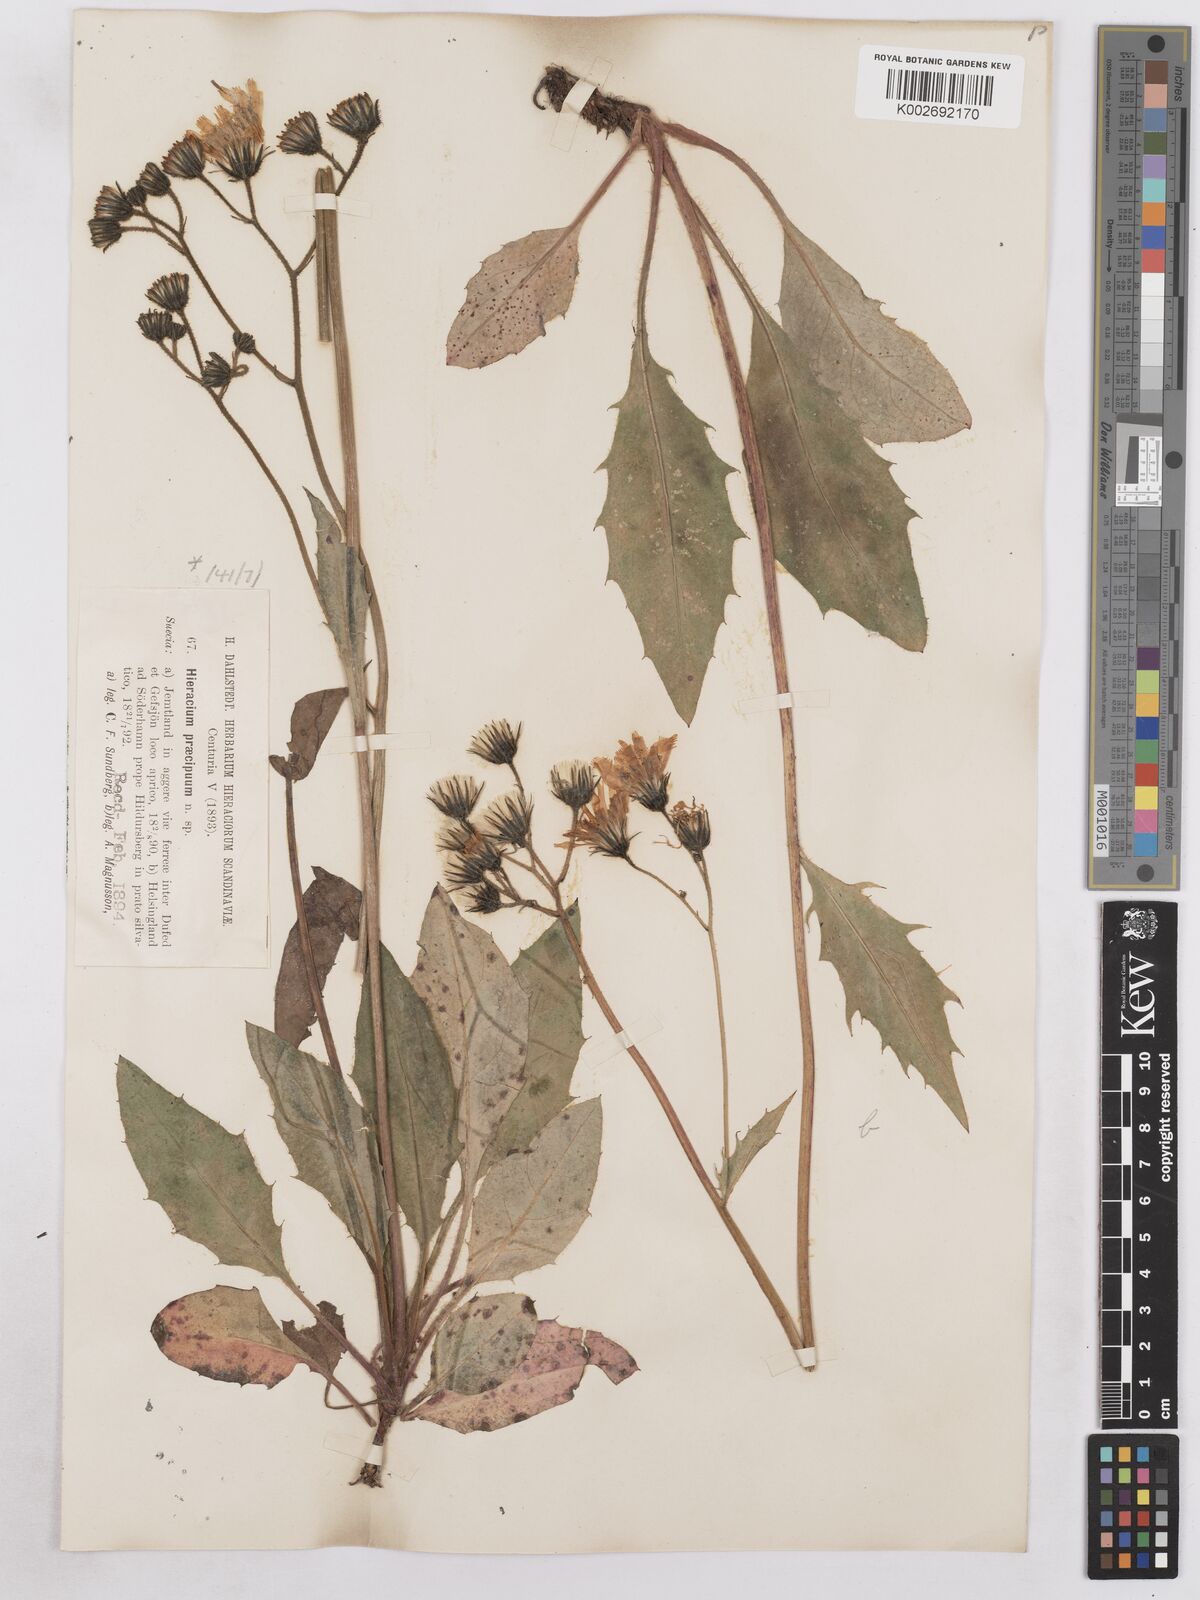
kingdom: Plantae
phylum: Tracheophyta
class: Magnoliopsida
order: Asterales
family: Asteraceae
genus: Hieracium
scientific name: Hieracium diaphanoides
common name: Fine-bracted hawkweed
